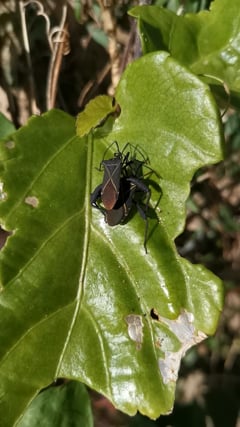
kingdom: Animalia
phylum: Arthropoda
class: Insecta
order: Hemiptera
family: Coreidae
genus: Acanthocerus
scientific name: Acanthocerus crucifer
